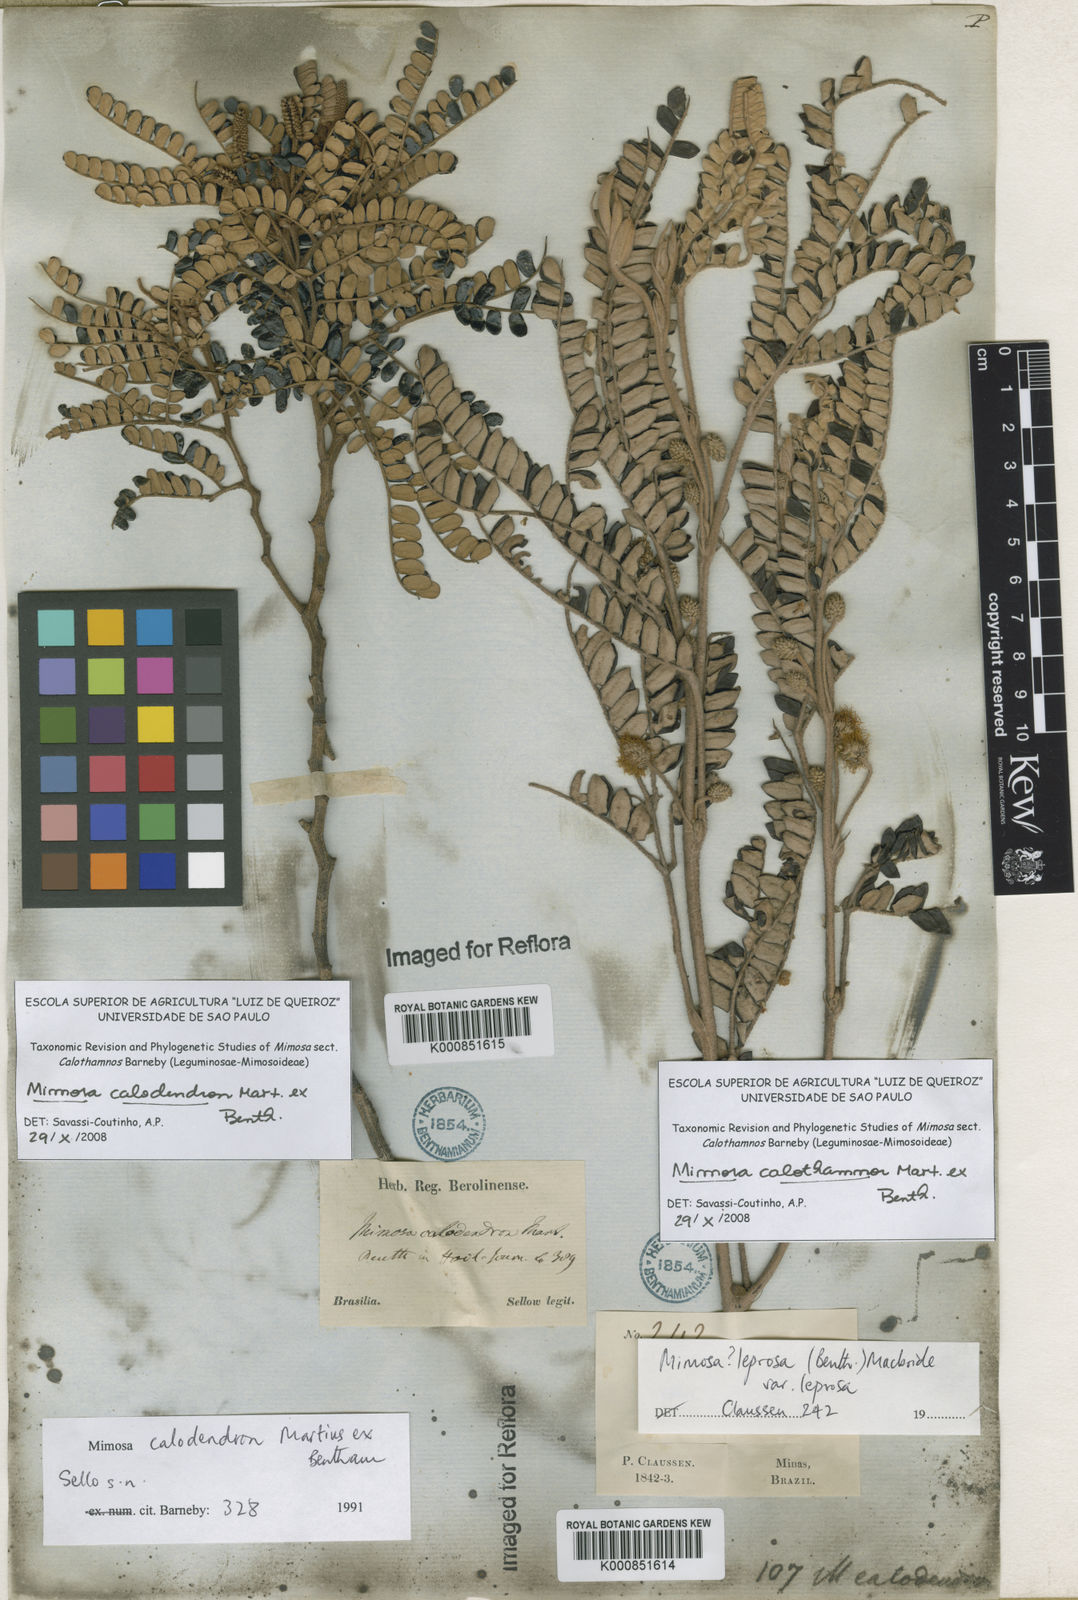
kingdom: Plantae
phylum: Tracheophyta
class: Magnoliopsida
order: Fabales
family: Fabaceae
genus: Mimosa
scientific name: Mimosa aurivillus
